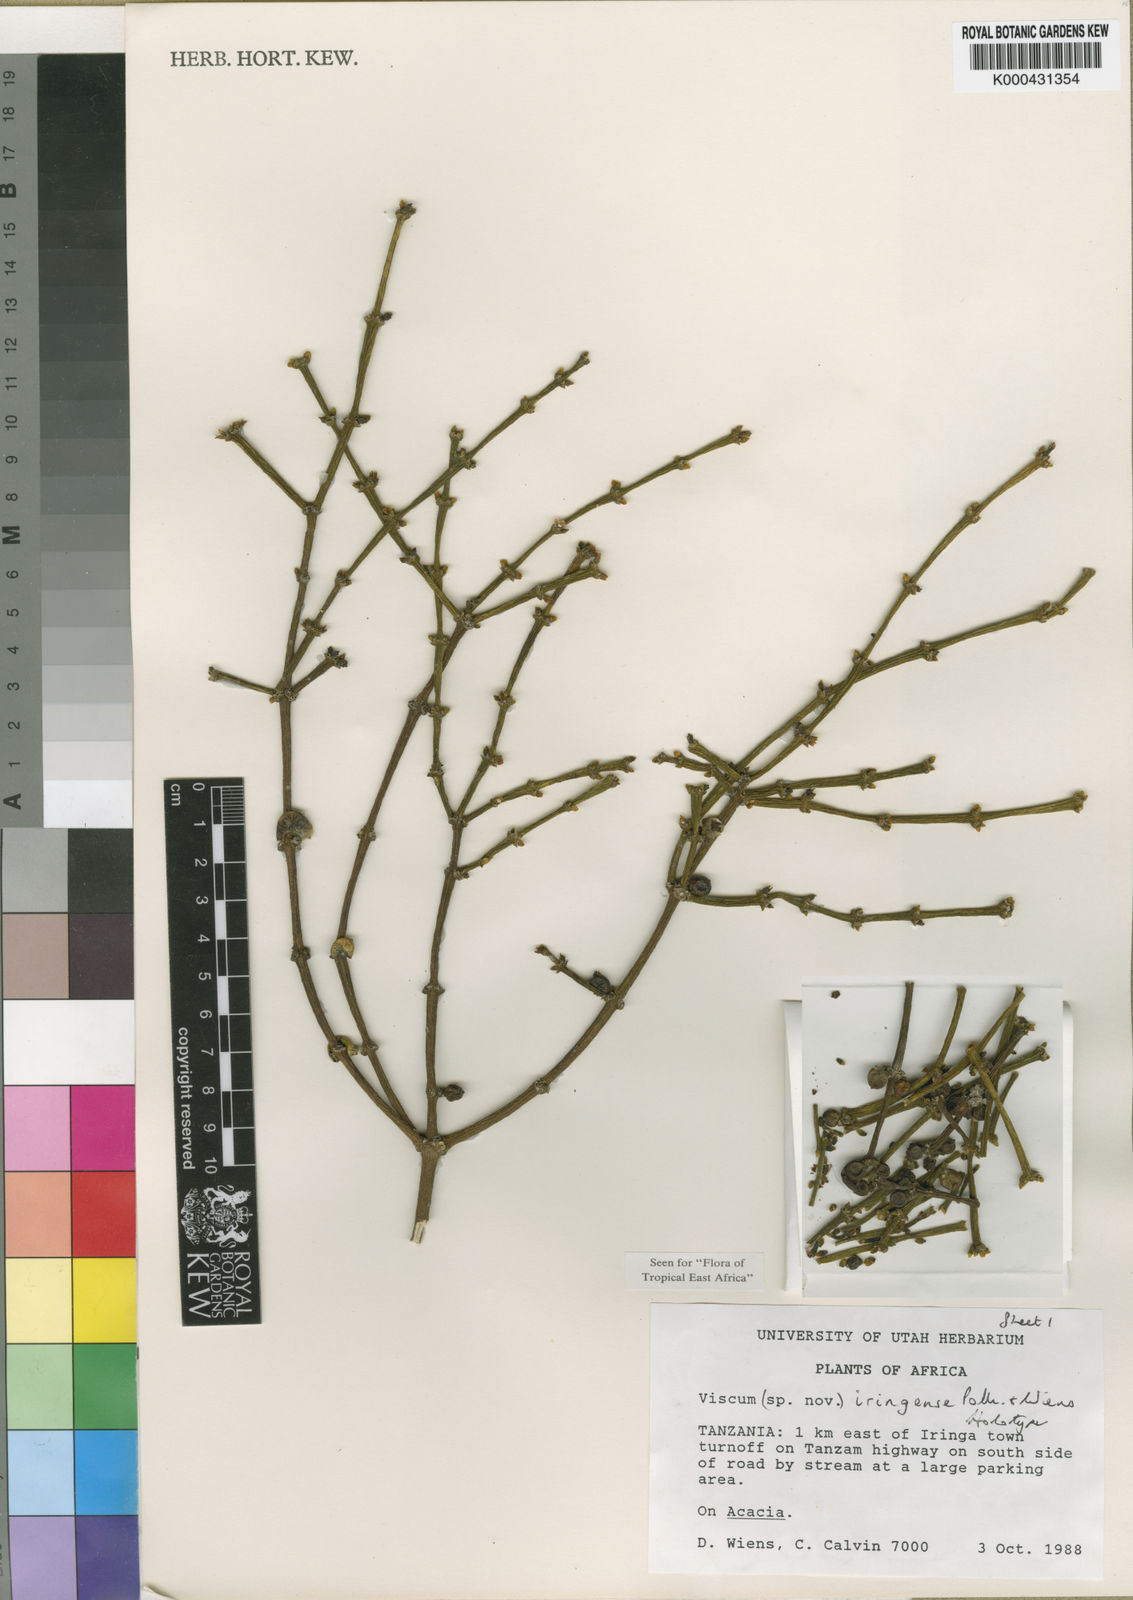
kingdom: Plantae
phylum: Tracheophyta
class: Magnoliopsida
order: Santalales
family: Viscaceae
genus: Viscum
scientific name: Viscum iringense
